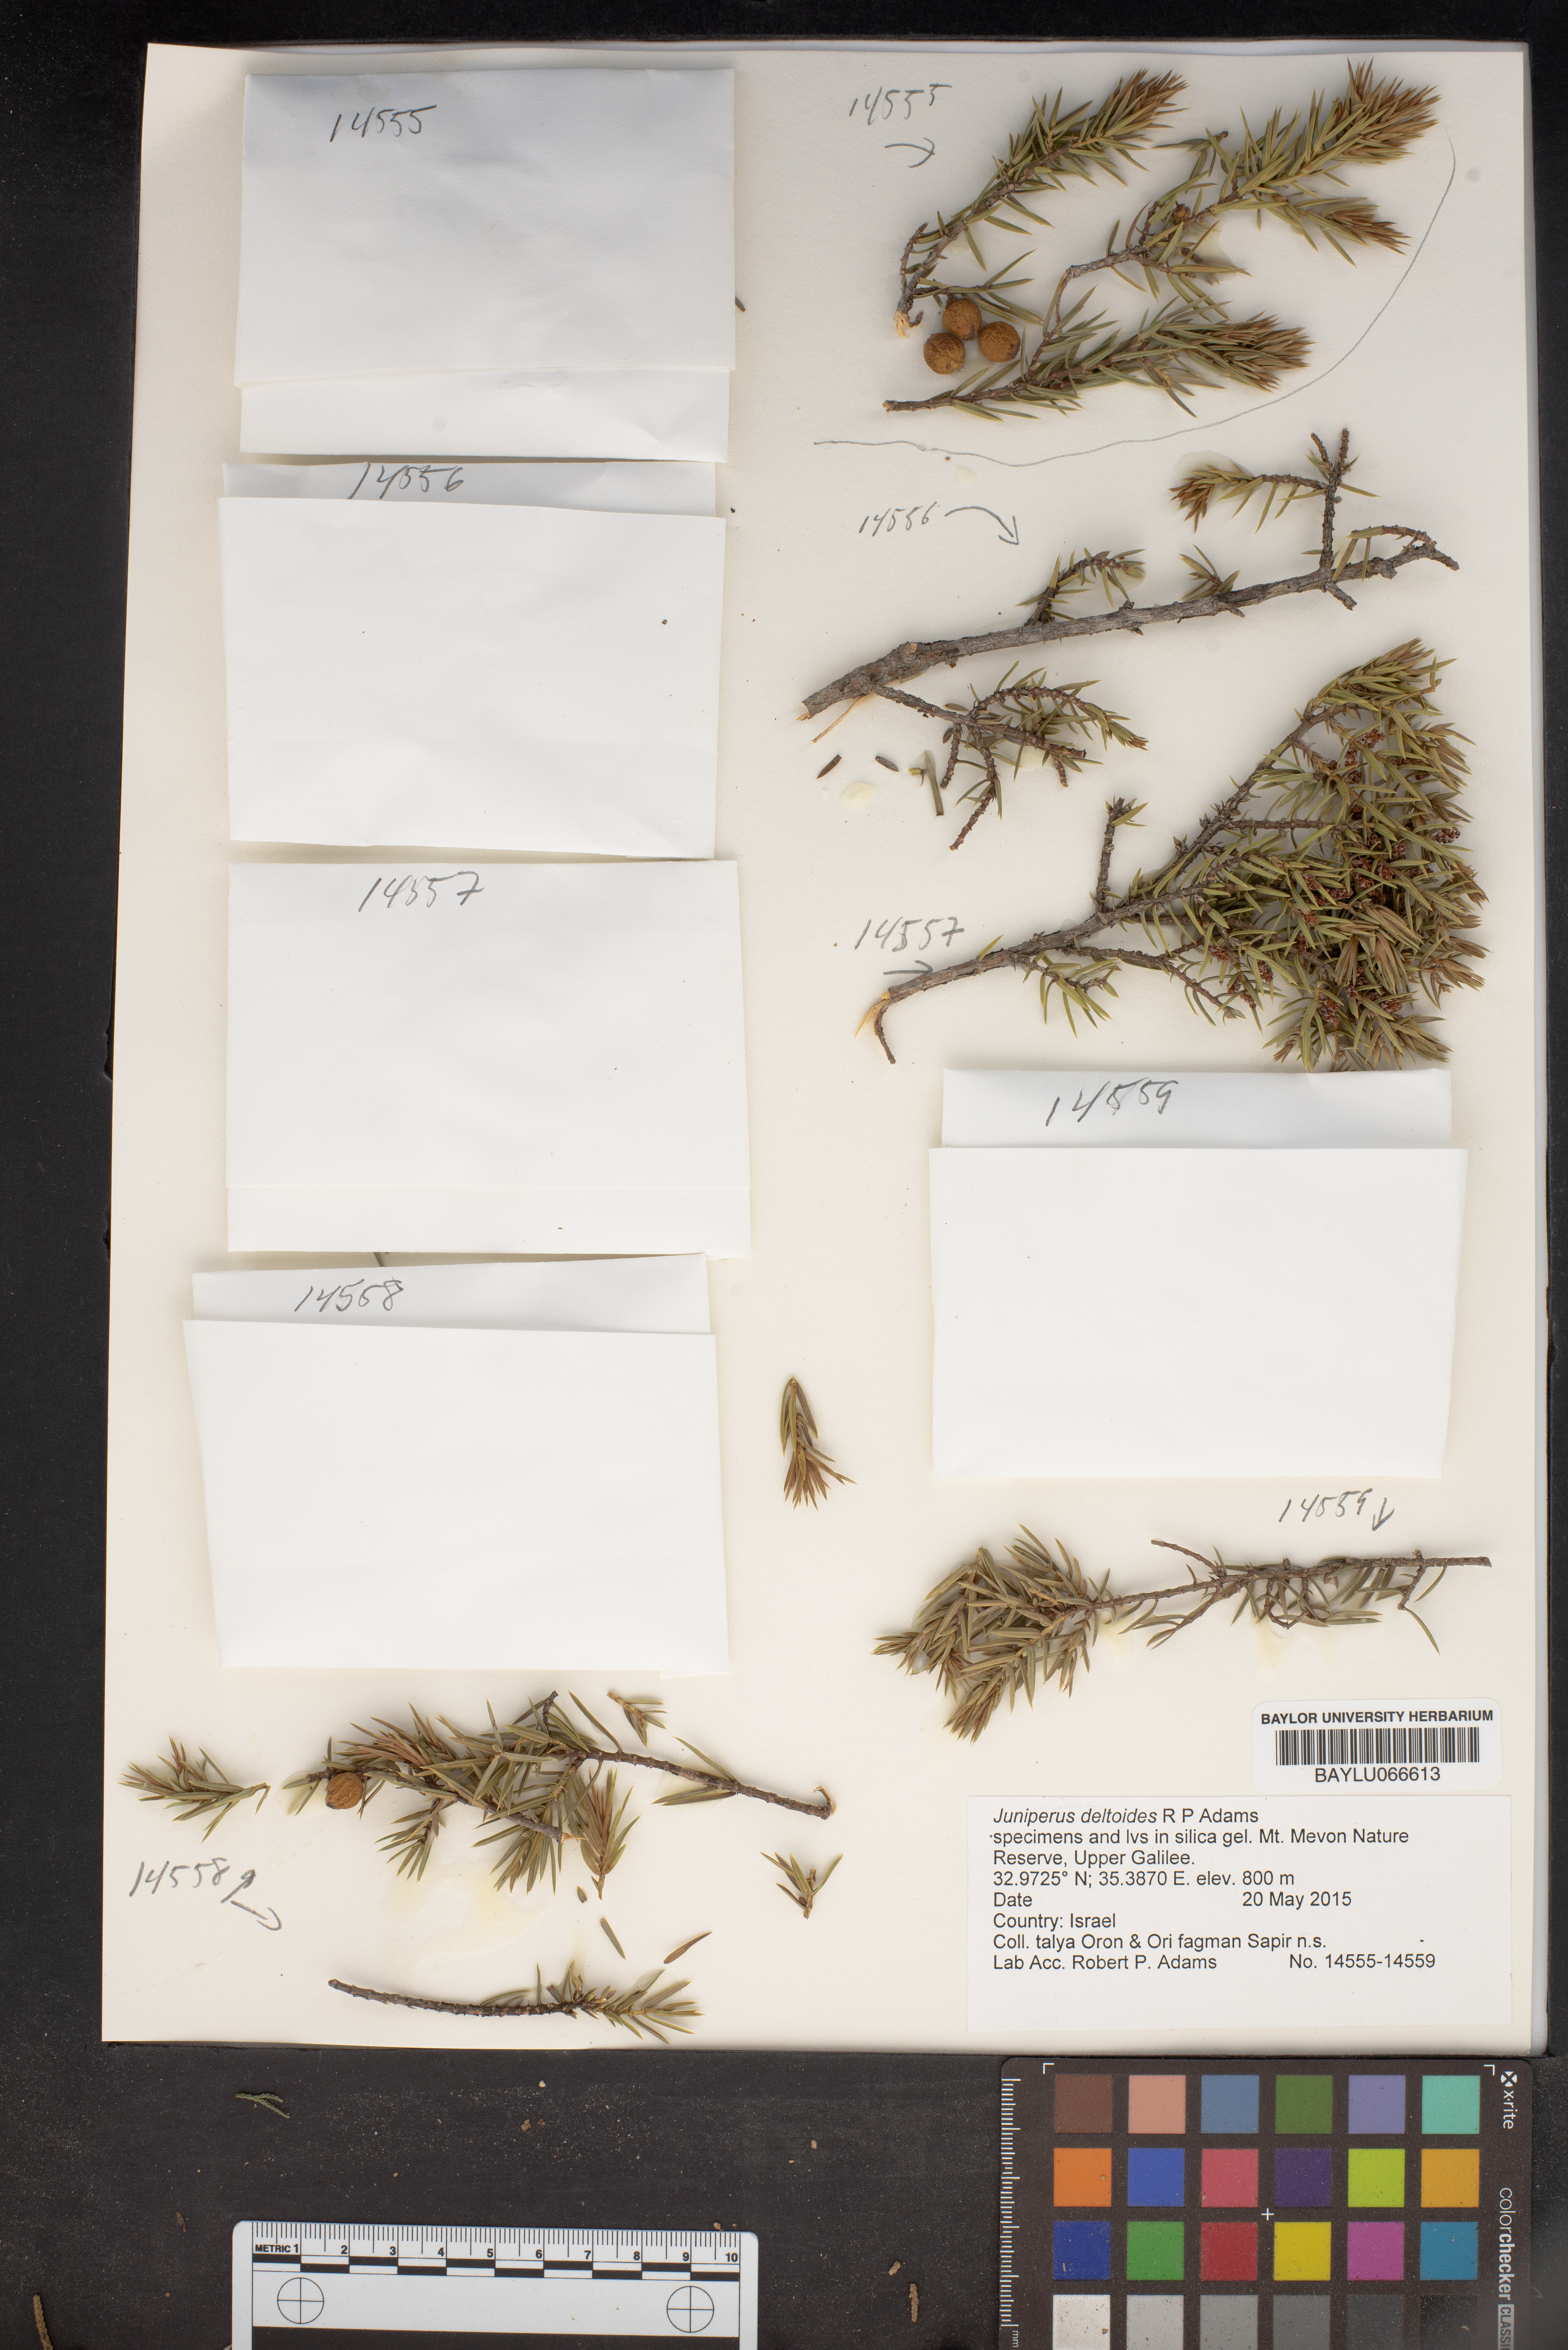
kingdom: Plantae
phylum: Tracheophyta
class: Pinopsida
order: Pinales
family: Cupressaceae
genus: Juniperus
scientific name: Juniperus oxycedrus
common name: Prickly juniper
